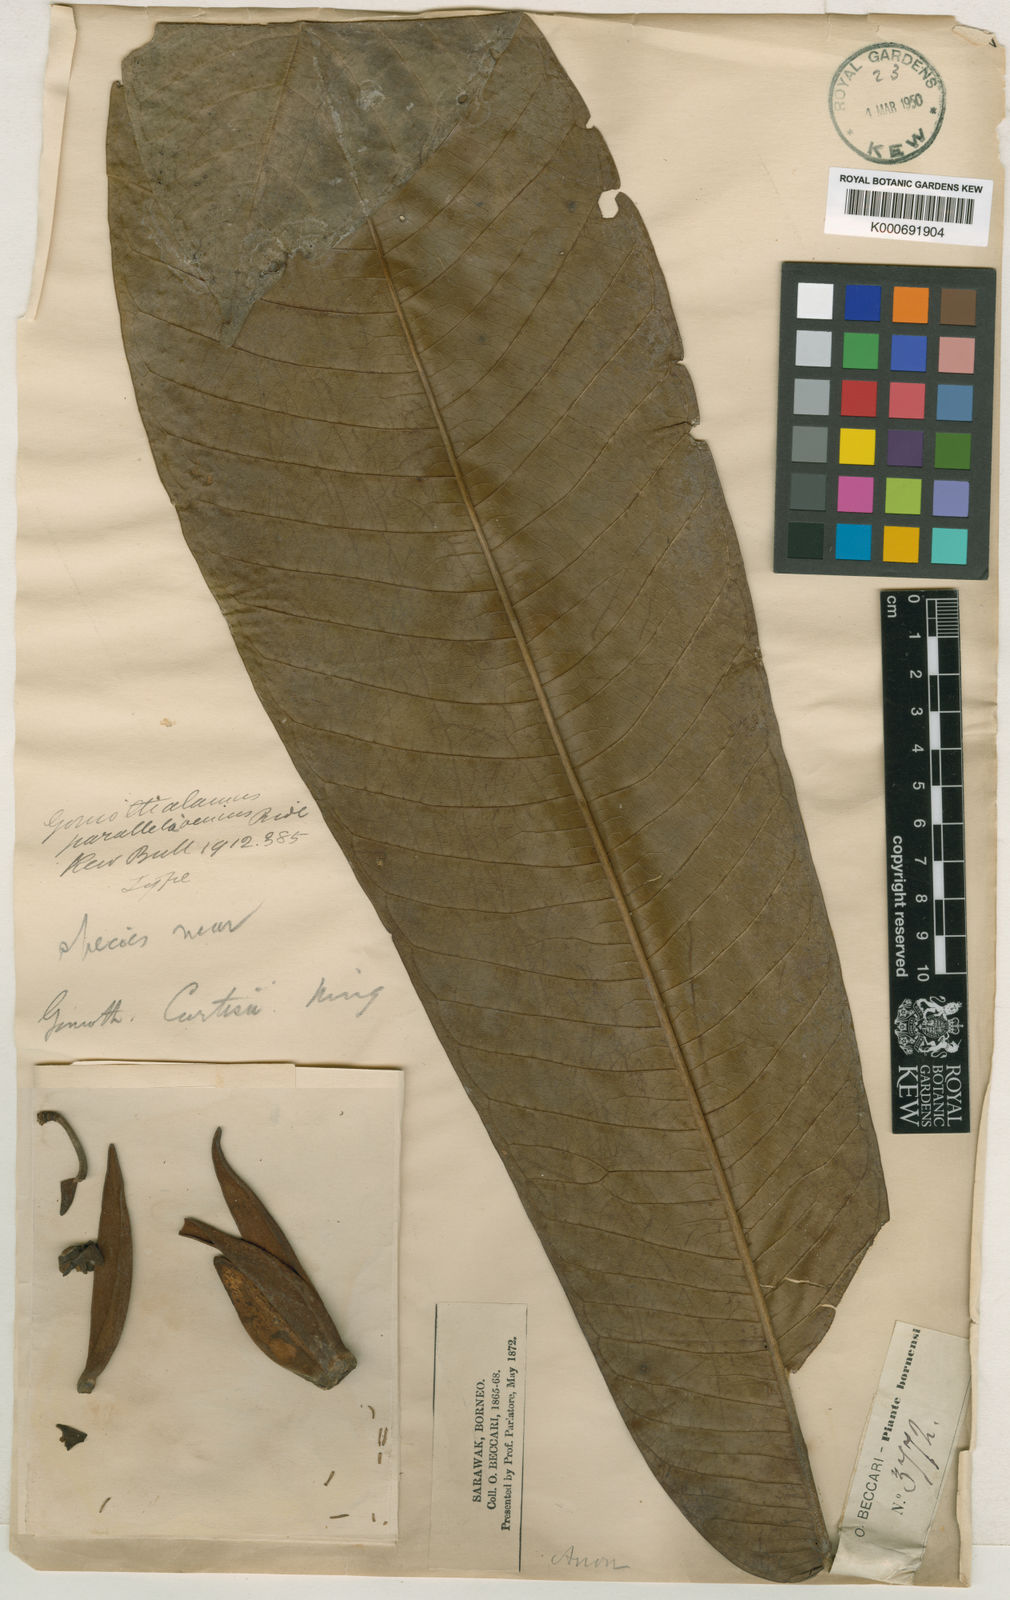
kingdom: Plantae
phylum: Tracheophyta
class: Magnoliopsida
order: Magnoliales
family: Annonaceae
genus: Goniothalamus
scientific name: Goniothalamus parallelovenius
